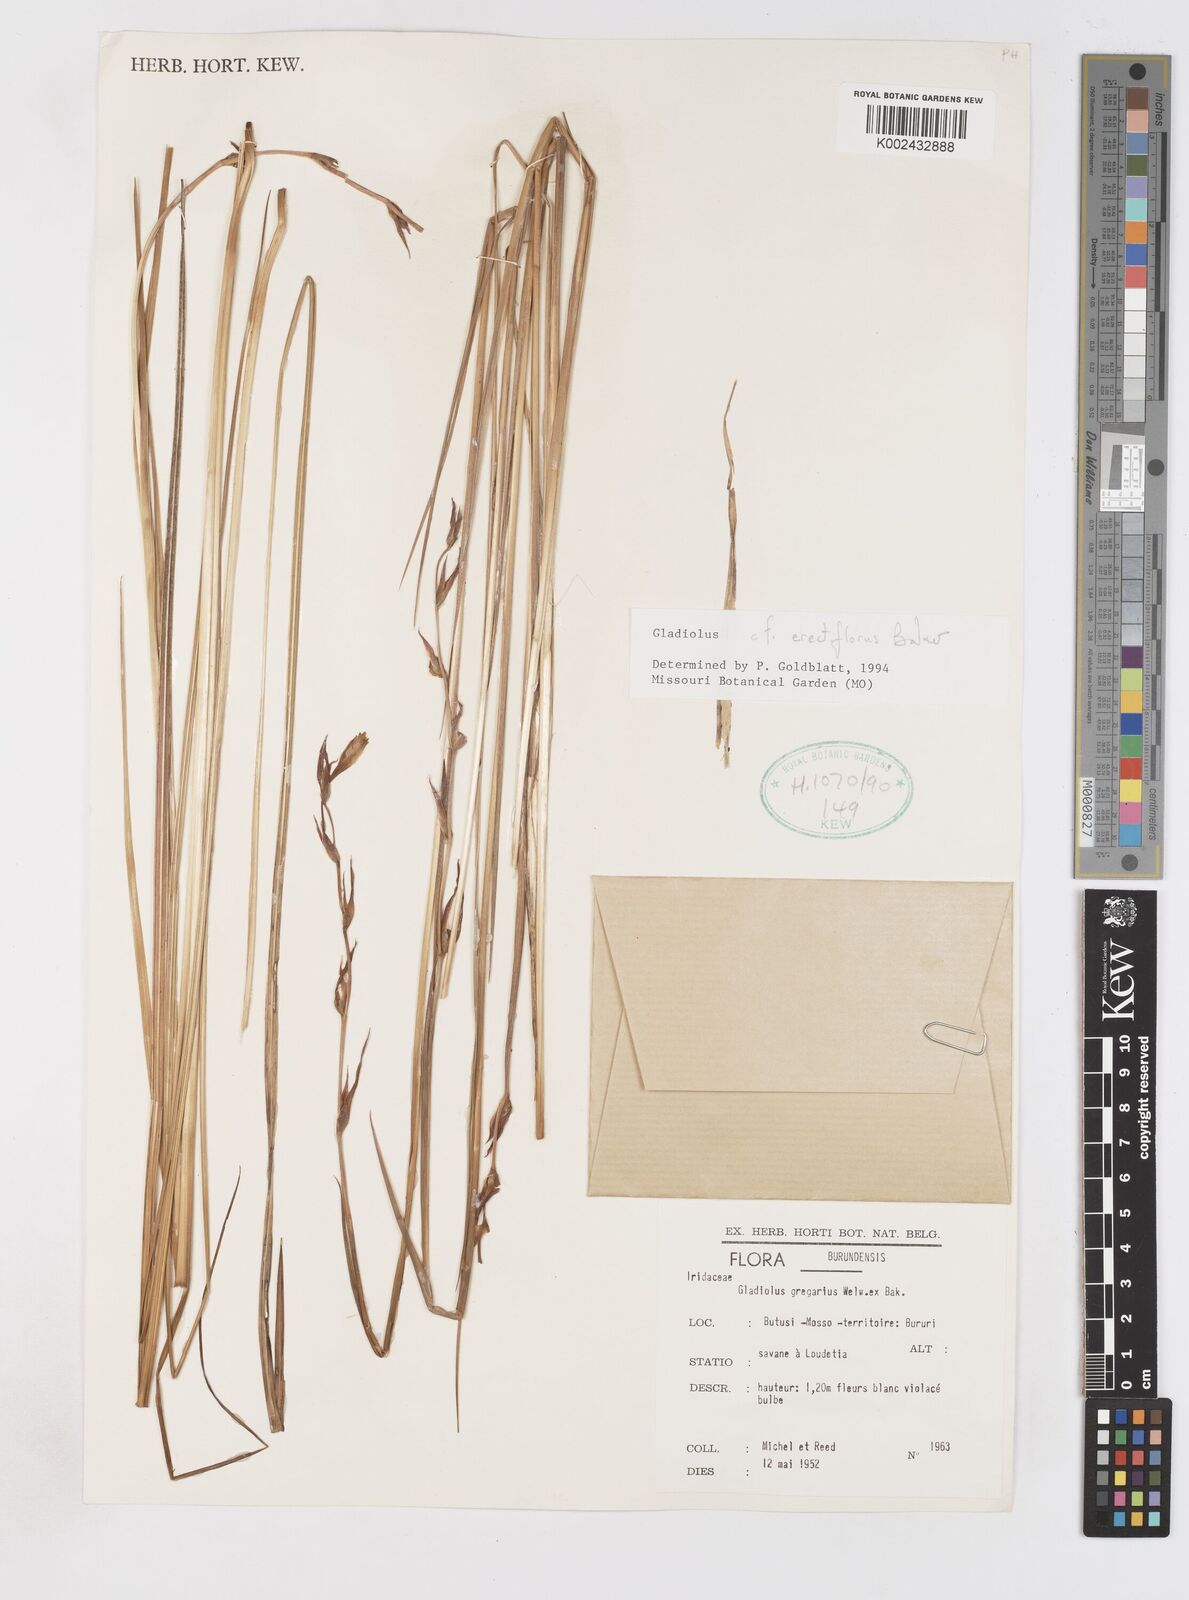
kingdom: Plantae
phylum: Tracheophyta
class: Liliopsida
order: Asparagales
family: Iridaceae
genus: Gladiolus
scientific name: Gladiolus erectiflorus
